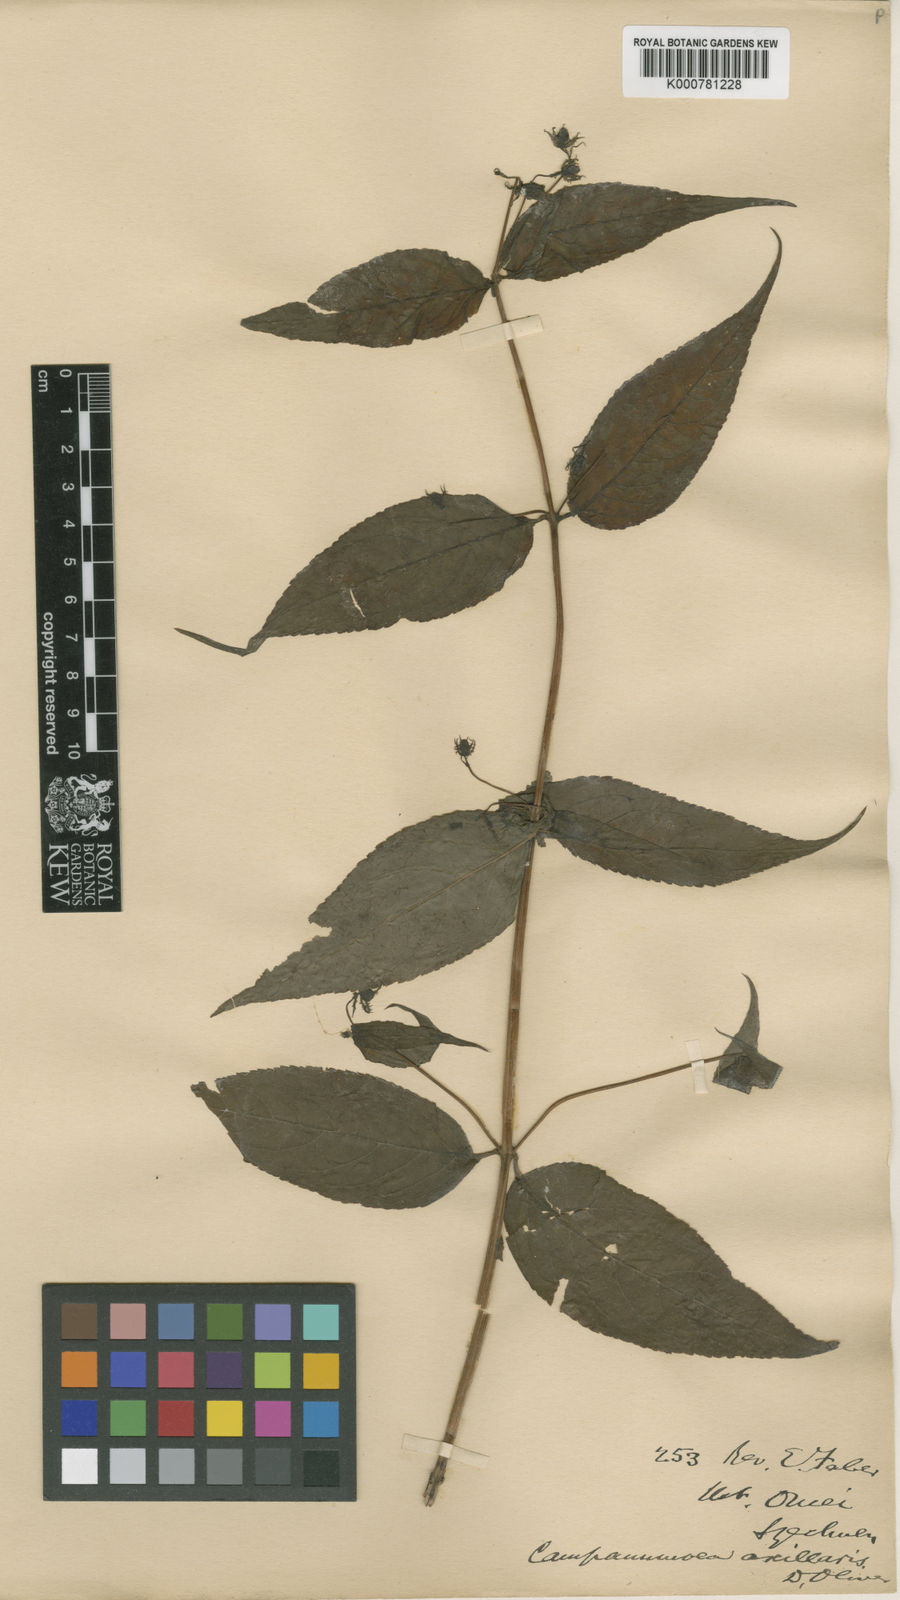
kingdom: Plantae
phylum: Tracheophyta
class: Magnoliopsida
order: Asterales
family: Campanulaceae
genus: Cyclocodon
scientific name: Cyclocodon lancifolius
